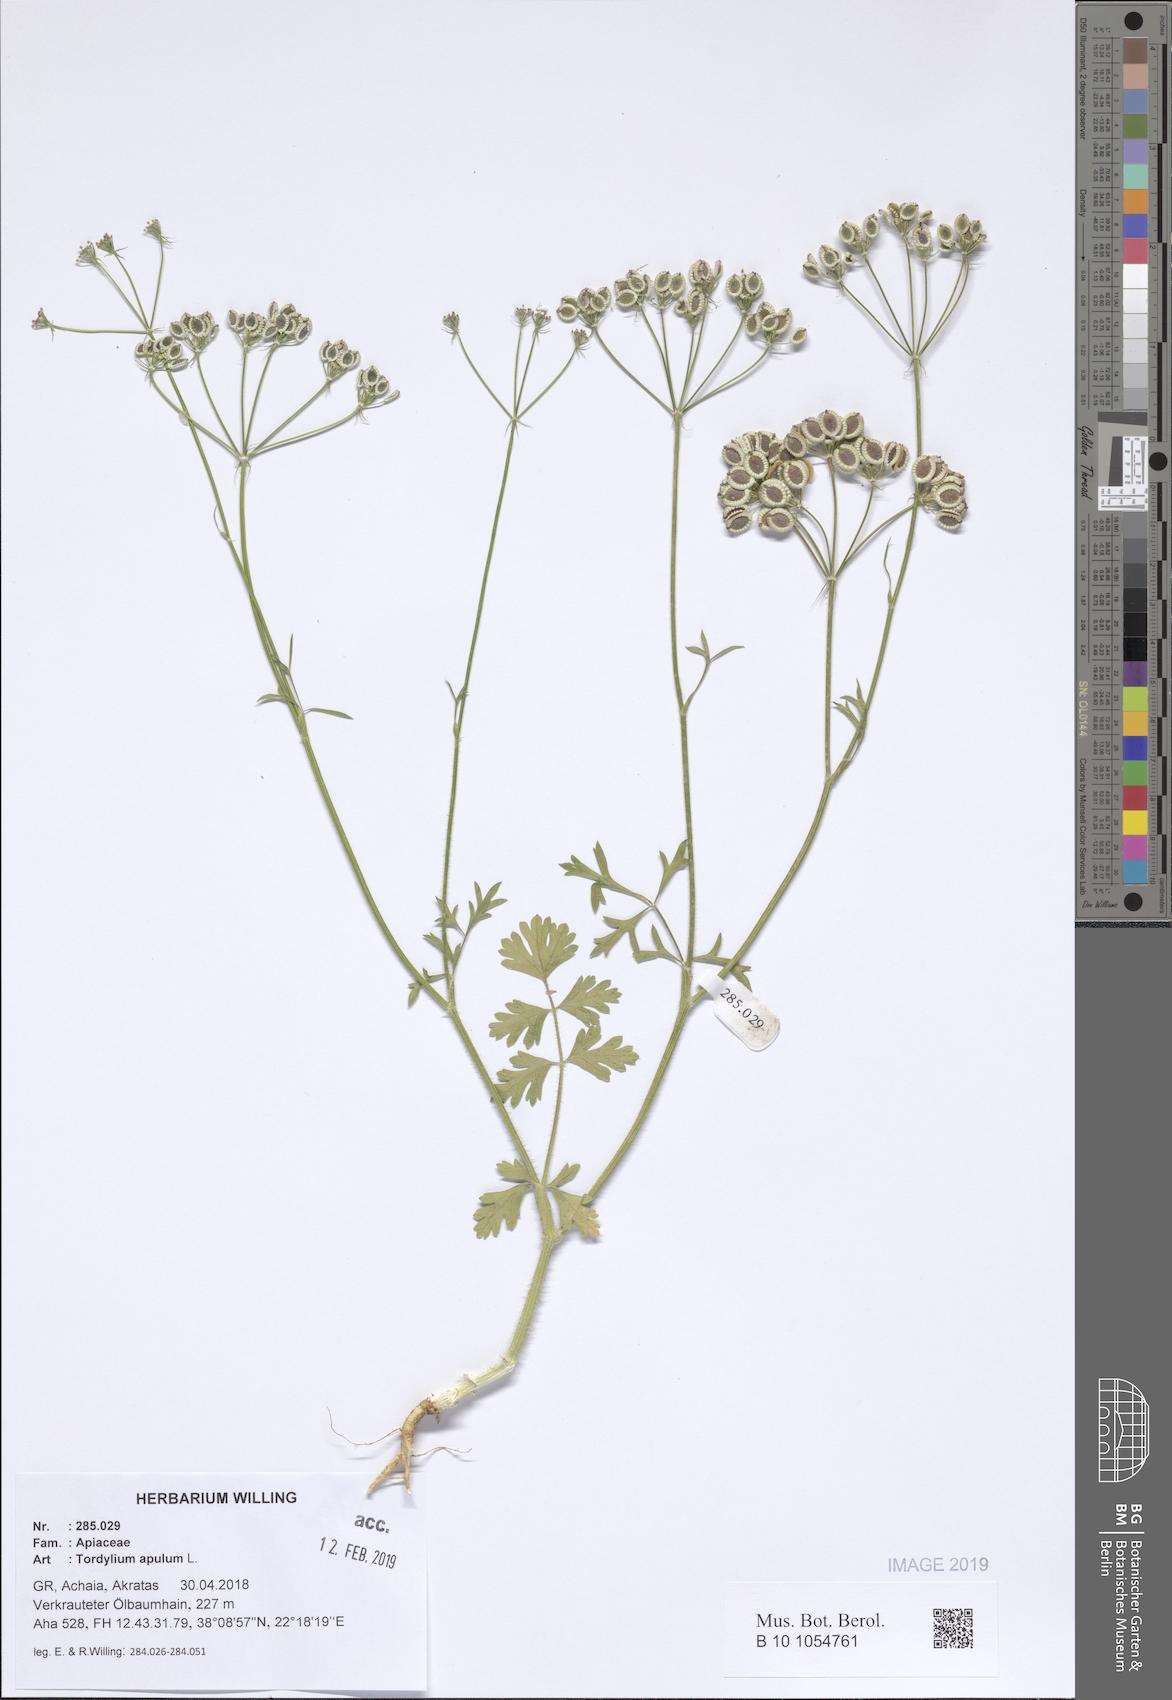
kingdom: Plantae
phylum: Tracheophyta
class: Magnoliopsida
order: Apiales
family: Apiaceae
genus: Tordylium
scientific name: Tordylium apulum
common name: Mediterranean hartwort
